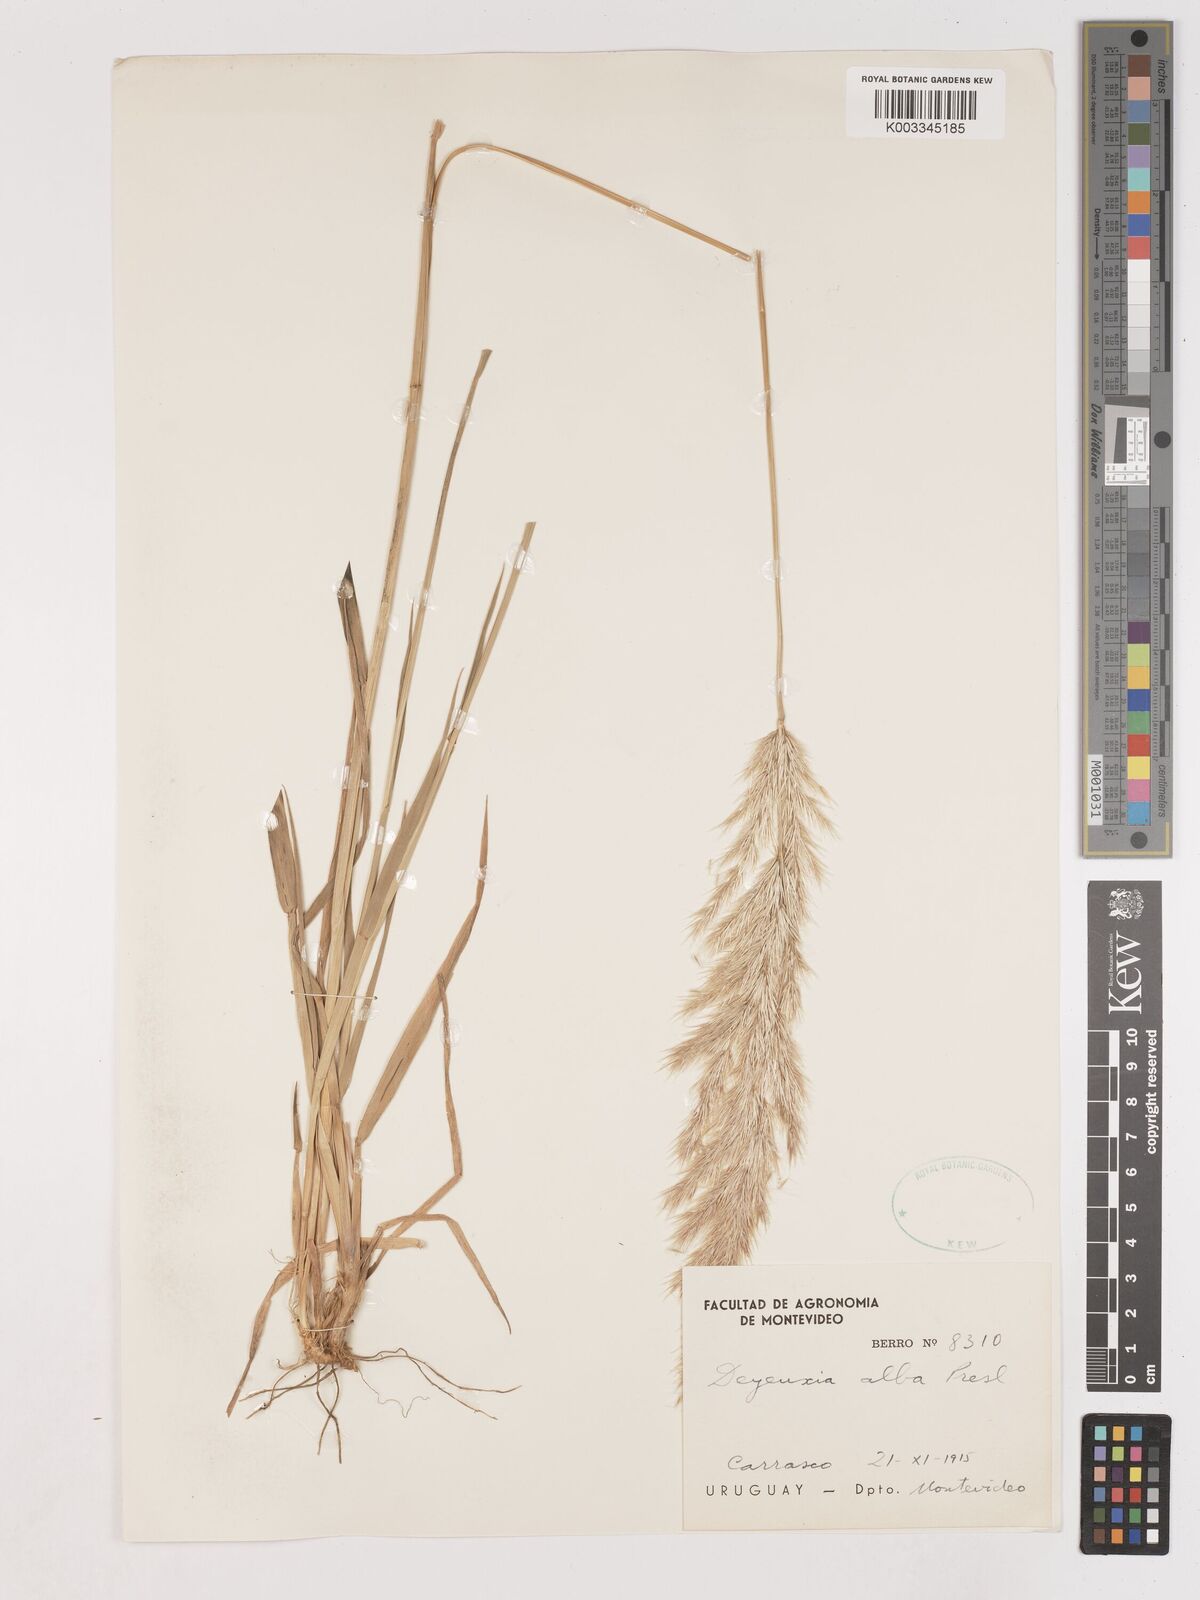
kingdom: Plantae
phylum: Tracheophyta
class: Liliopsida
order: Poales
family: Poaceae
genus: Cinnagrostis
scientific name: Cinnagrostis alba
